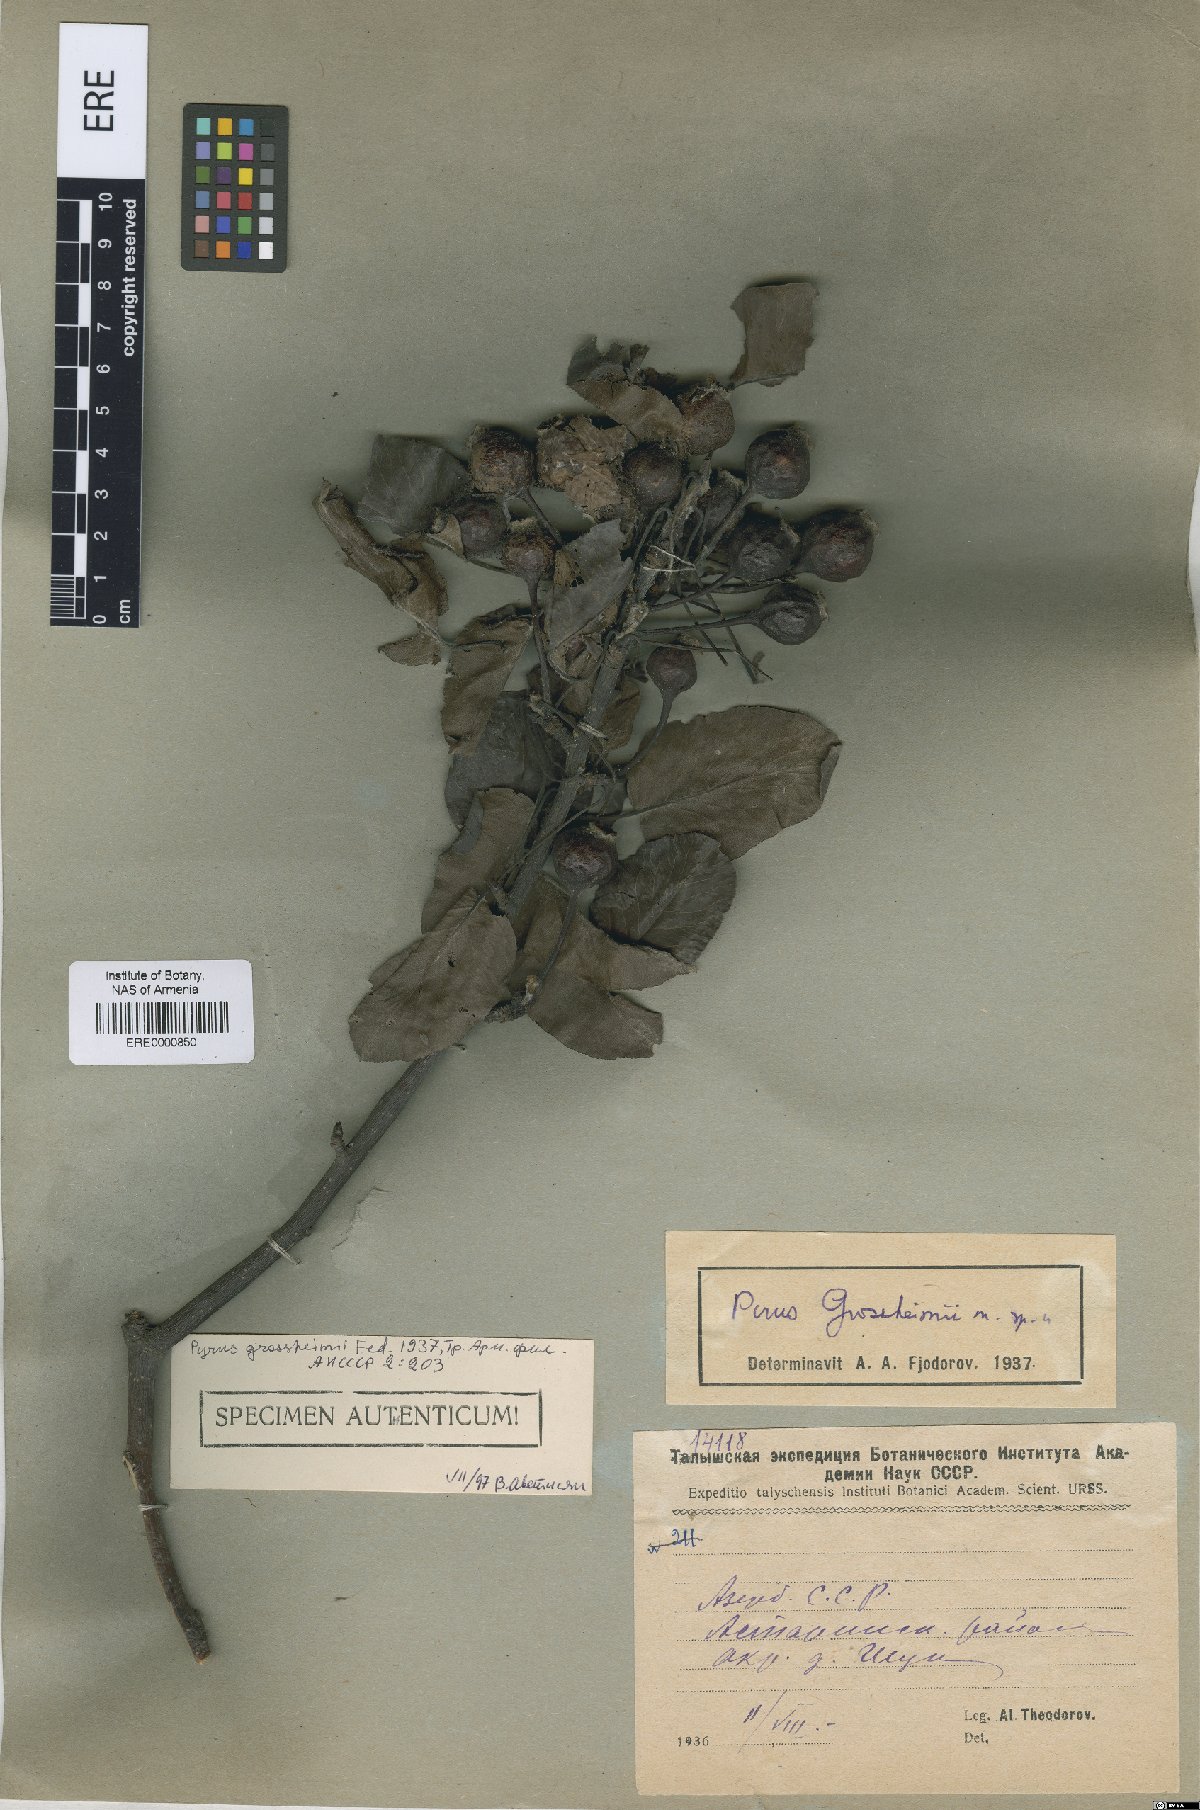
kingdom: Plantae
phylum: Tracheophyta
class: Magnoliopsida
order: Rosales
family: Rosaceae
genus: Pyrus
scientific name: Pyrus grossheimii
